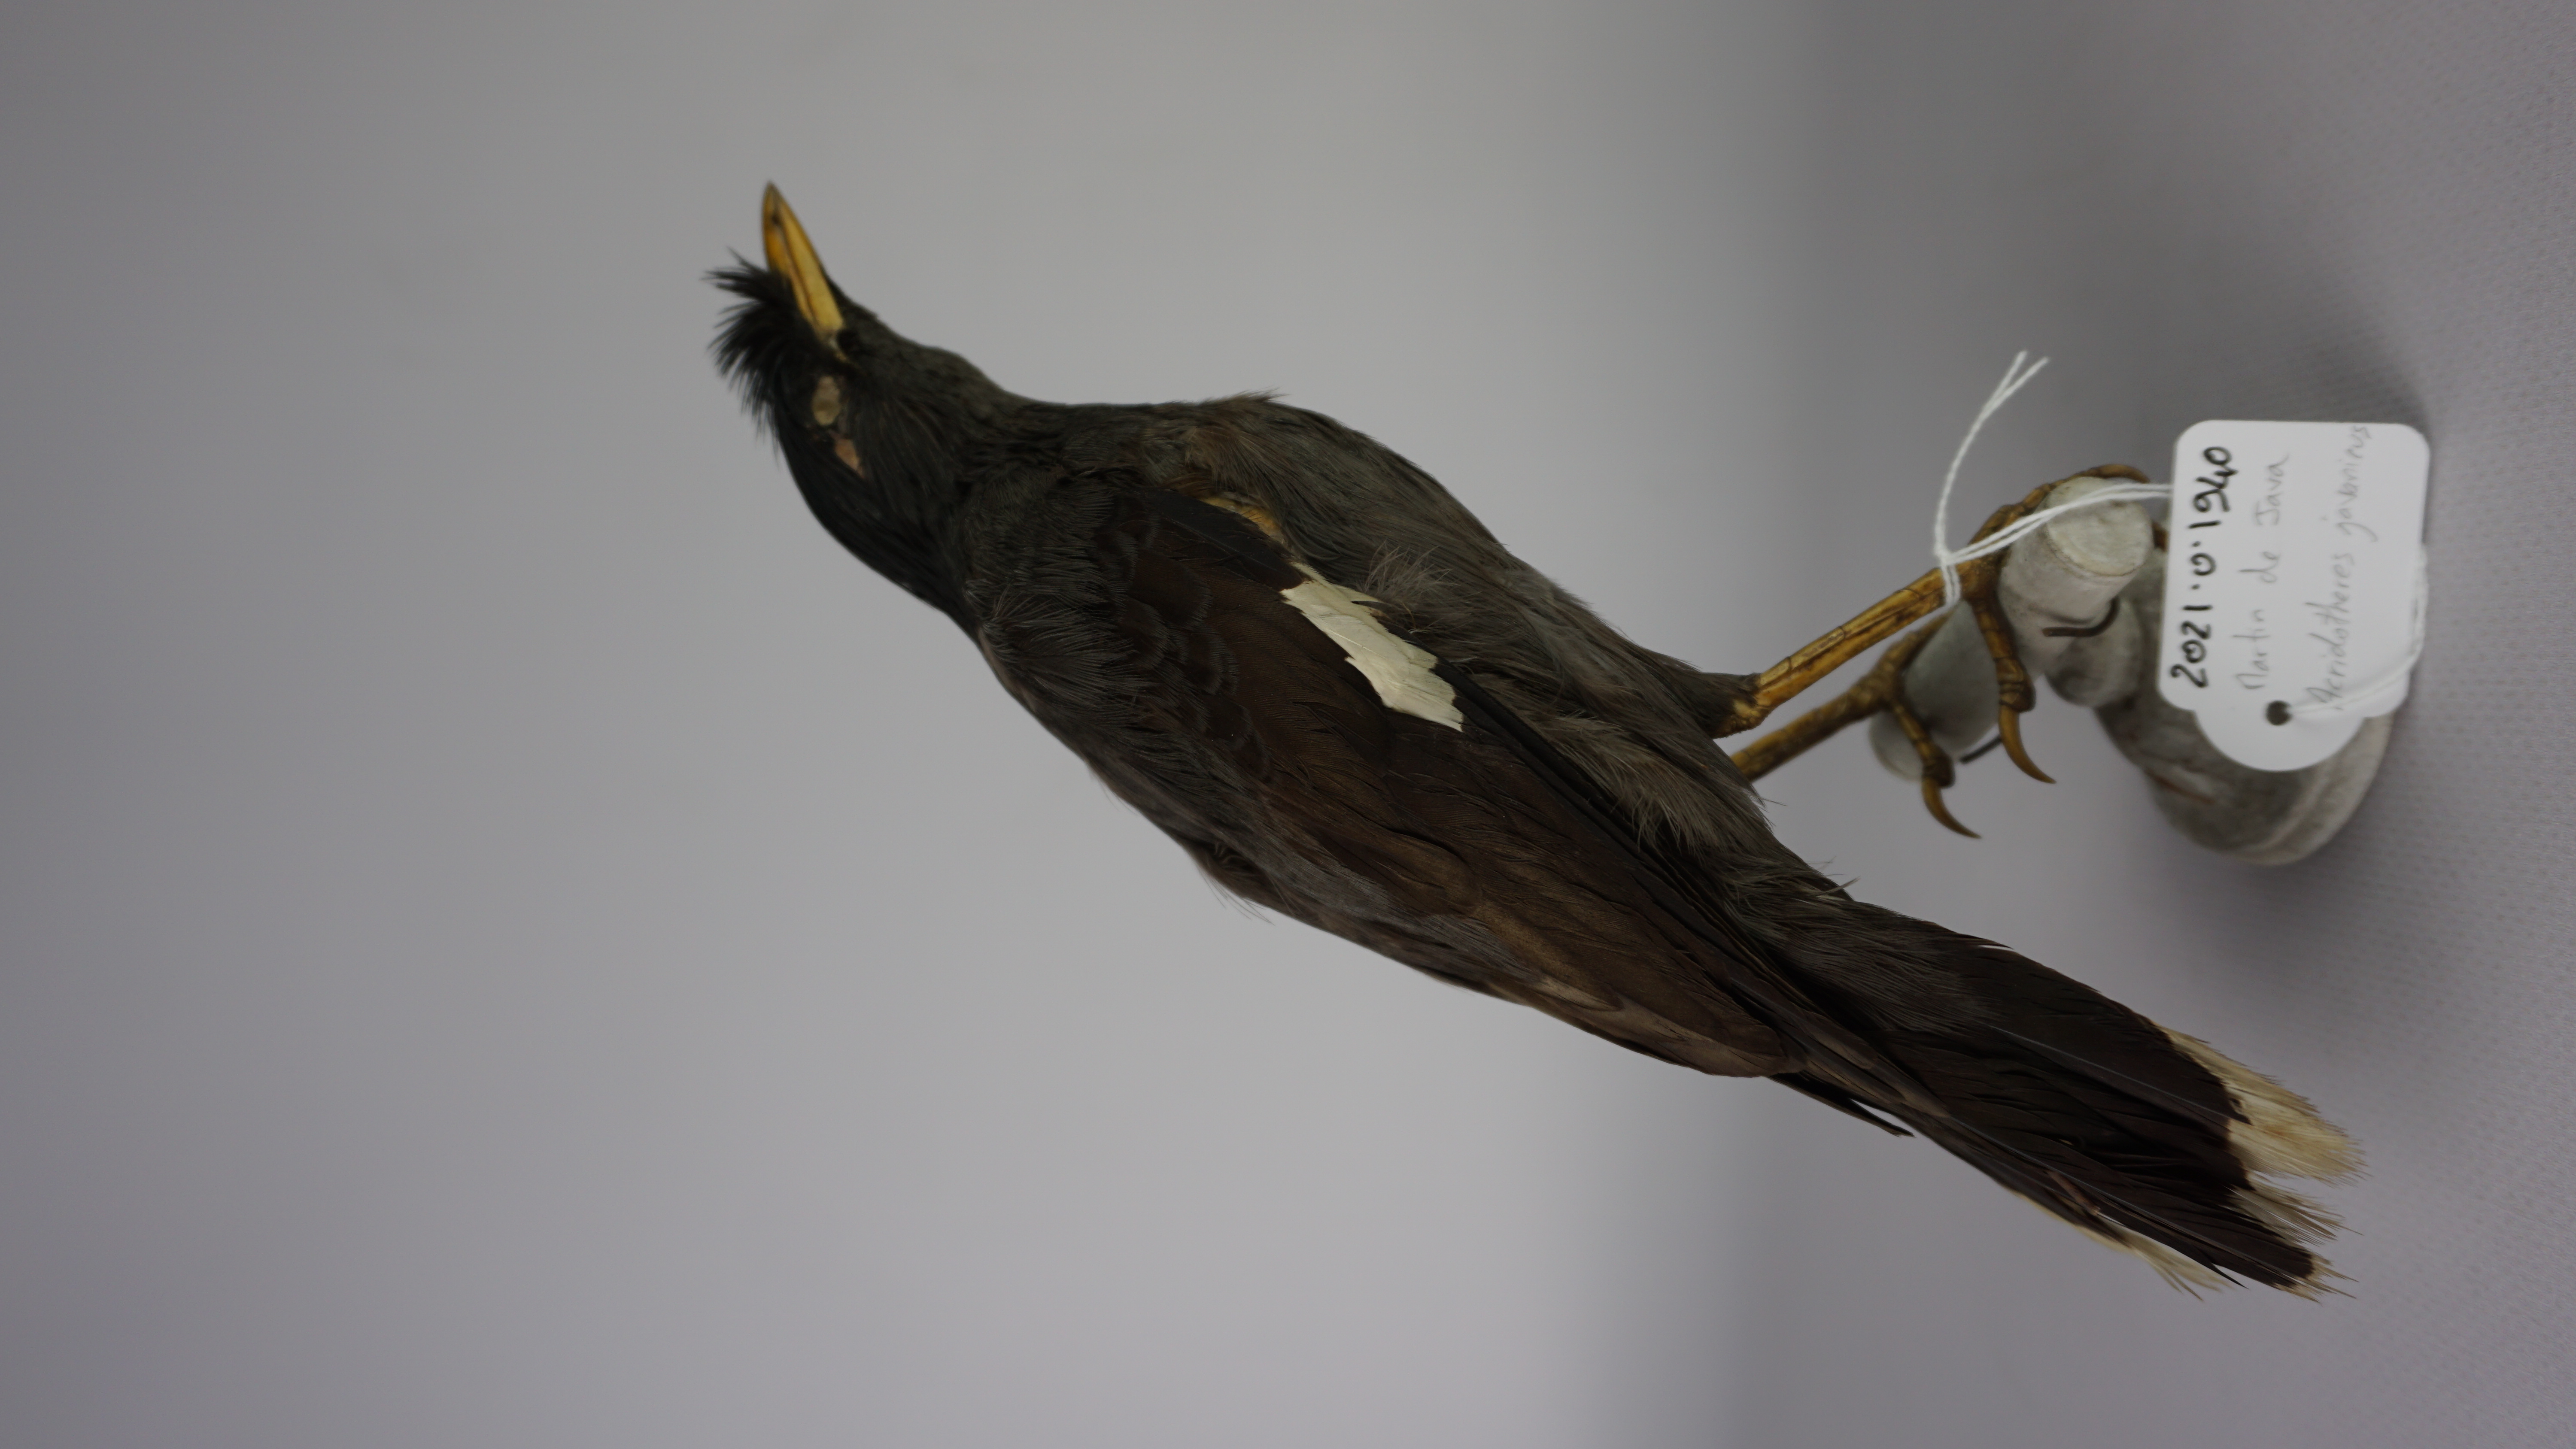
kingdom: Animalia
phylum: Chordata
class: Aves
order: Passeriformes
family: Sturnidae
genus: Acridotheres
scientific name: Acridotheres javanicus
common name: Javan myna
